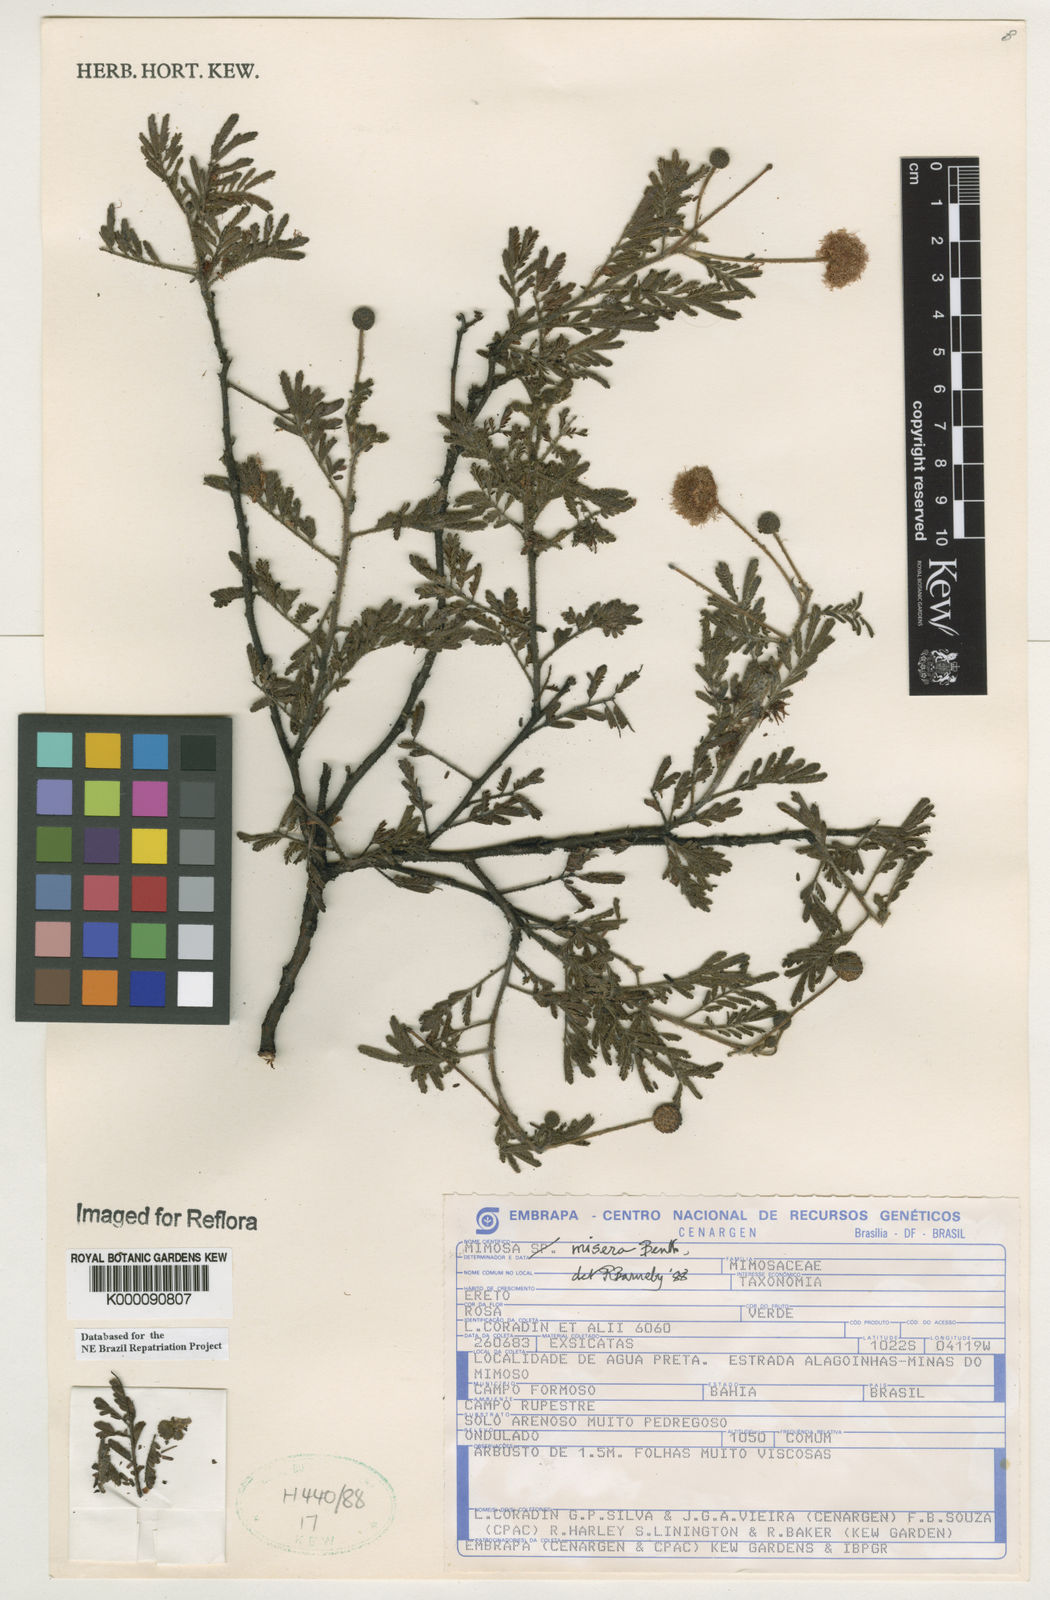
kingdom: Plantae
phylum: Tracheophyta
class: Magnoliopsida
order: Fabales
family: Fabaceae
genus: Mimosa
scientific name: Mimosa misera
